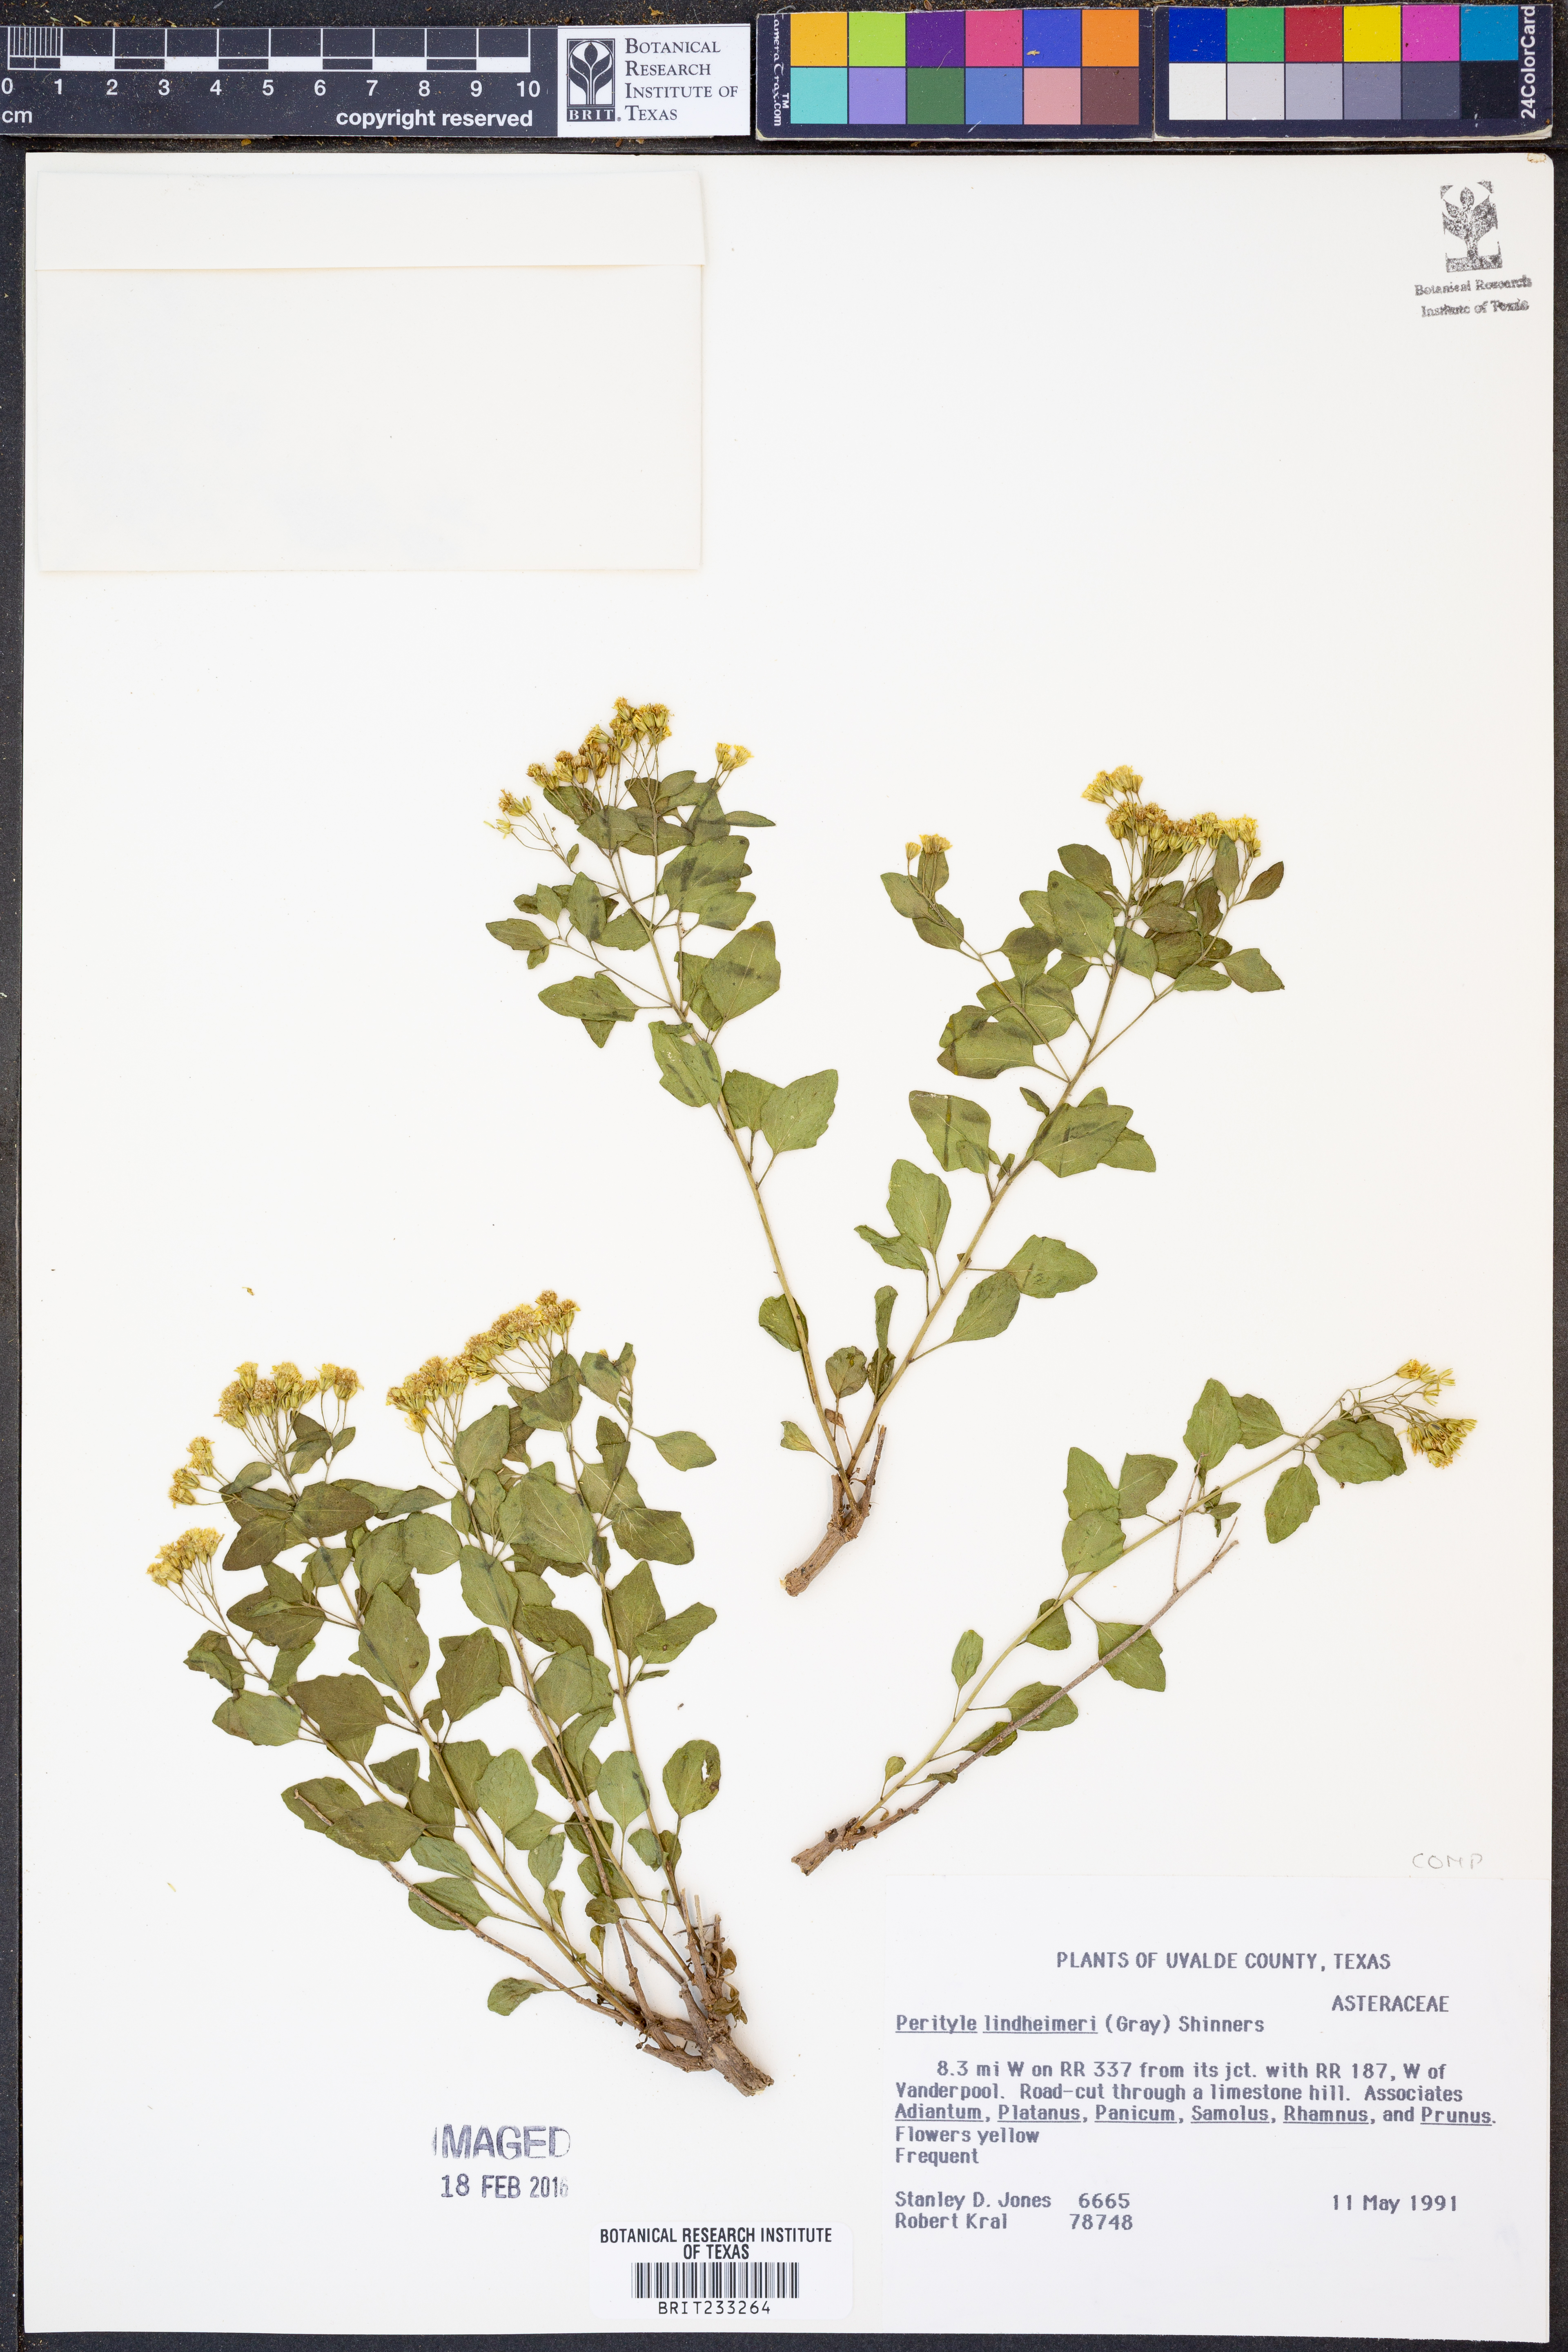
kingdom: Plantae
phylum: Tracheophyta
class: Magnoliopsida
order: Asterales
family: Asteraceae
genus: Laphamia
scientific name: Laphamia lindheimeri
